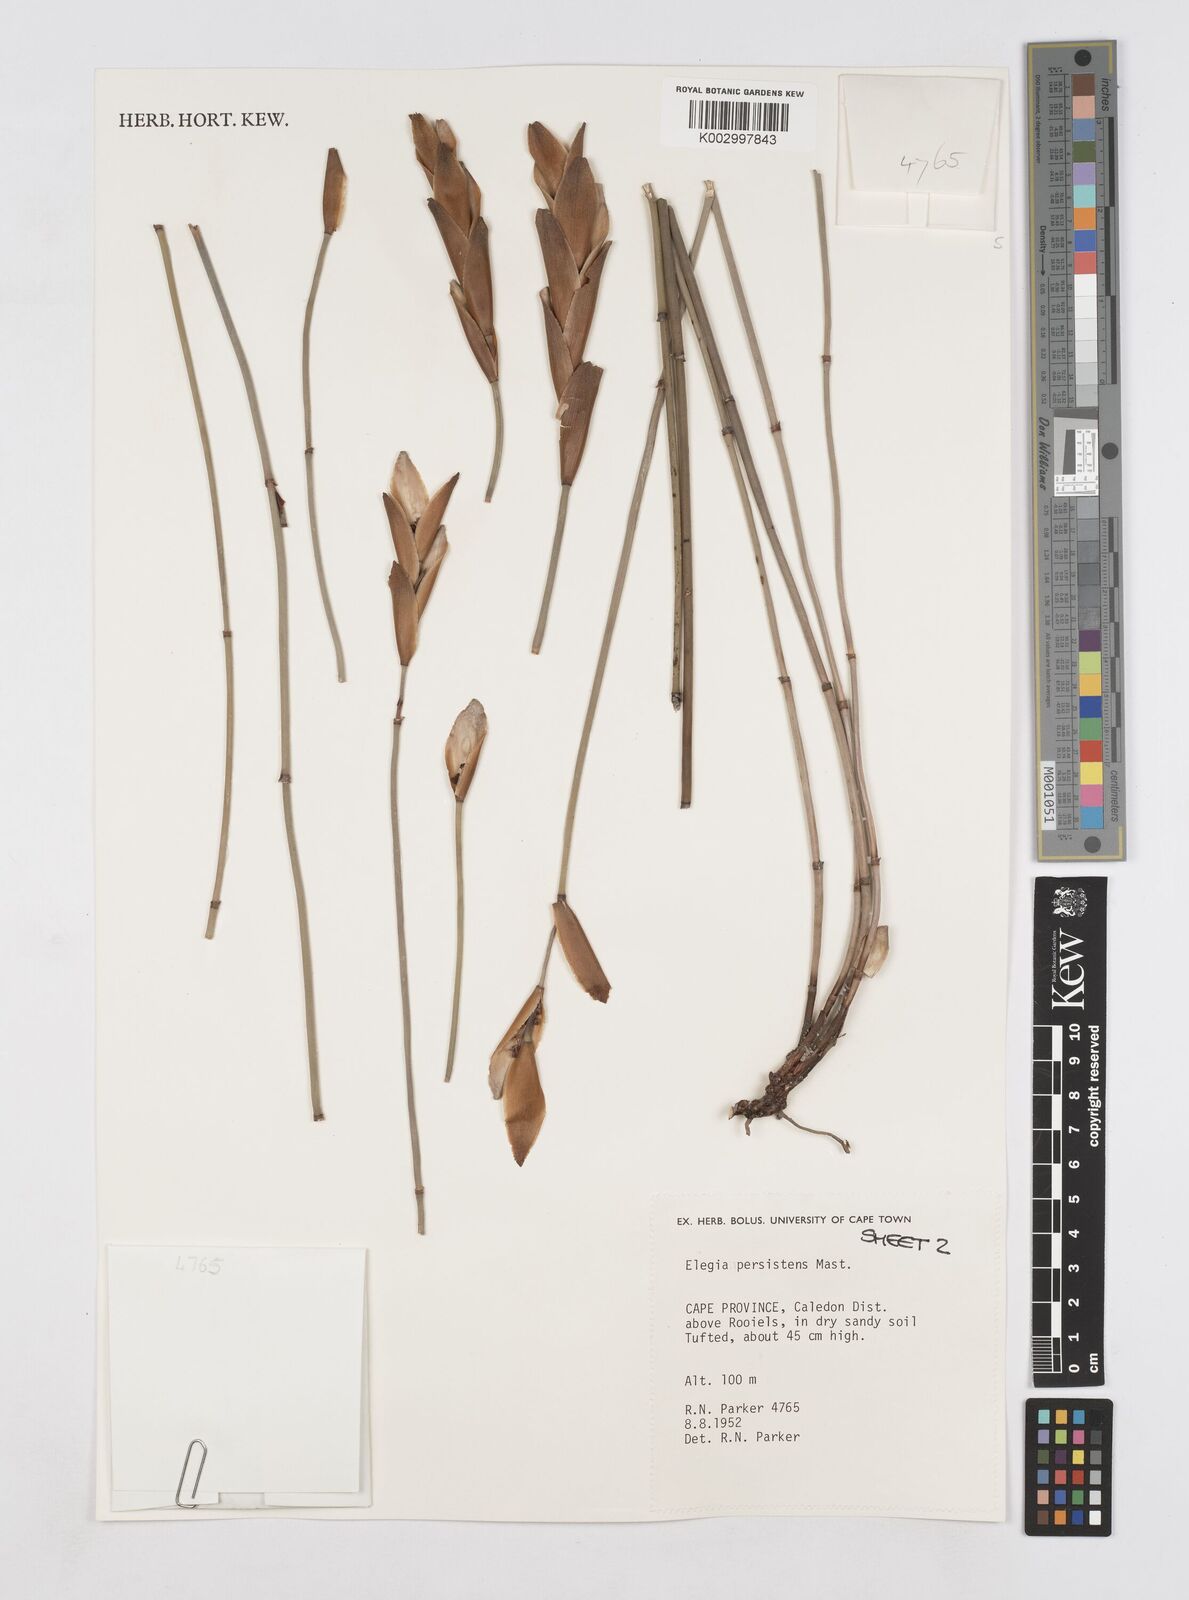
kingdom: Plantae
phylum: Tracheophyta
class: Liliopsida
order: Poales
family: Restionaceae
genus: Elegia
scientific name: Elegia persistens
